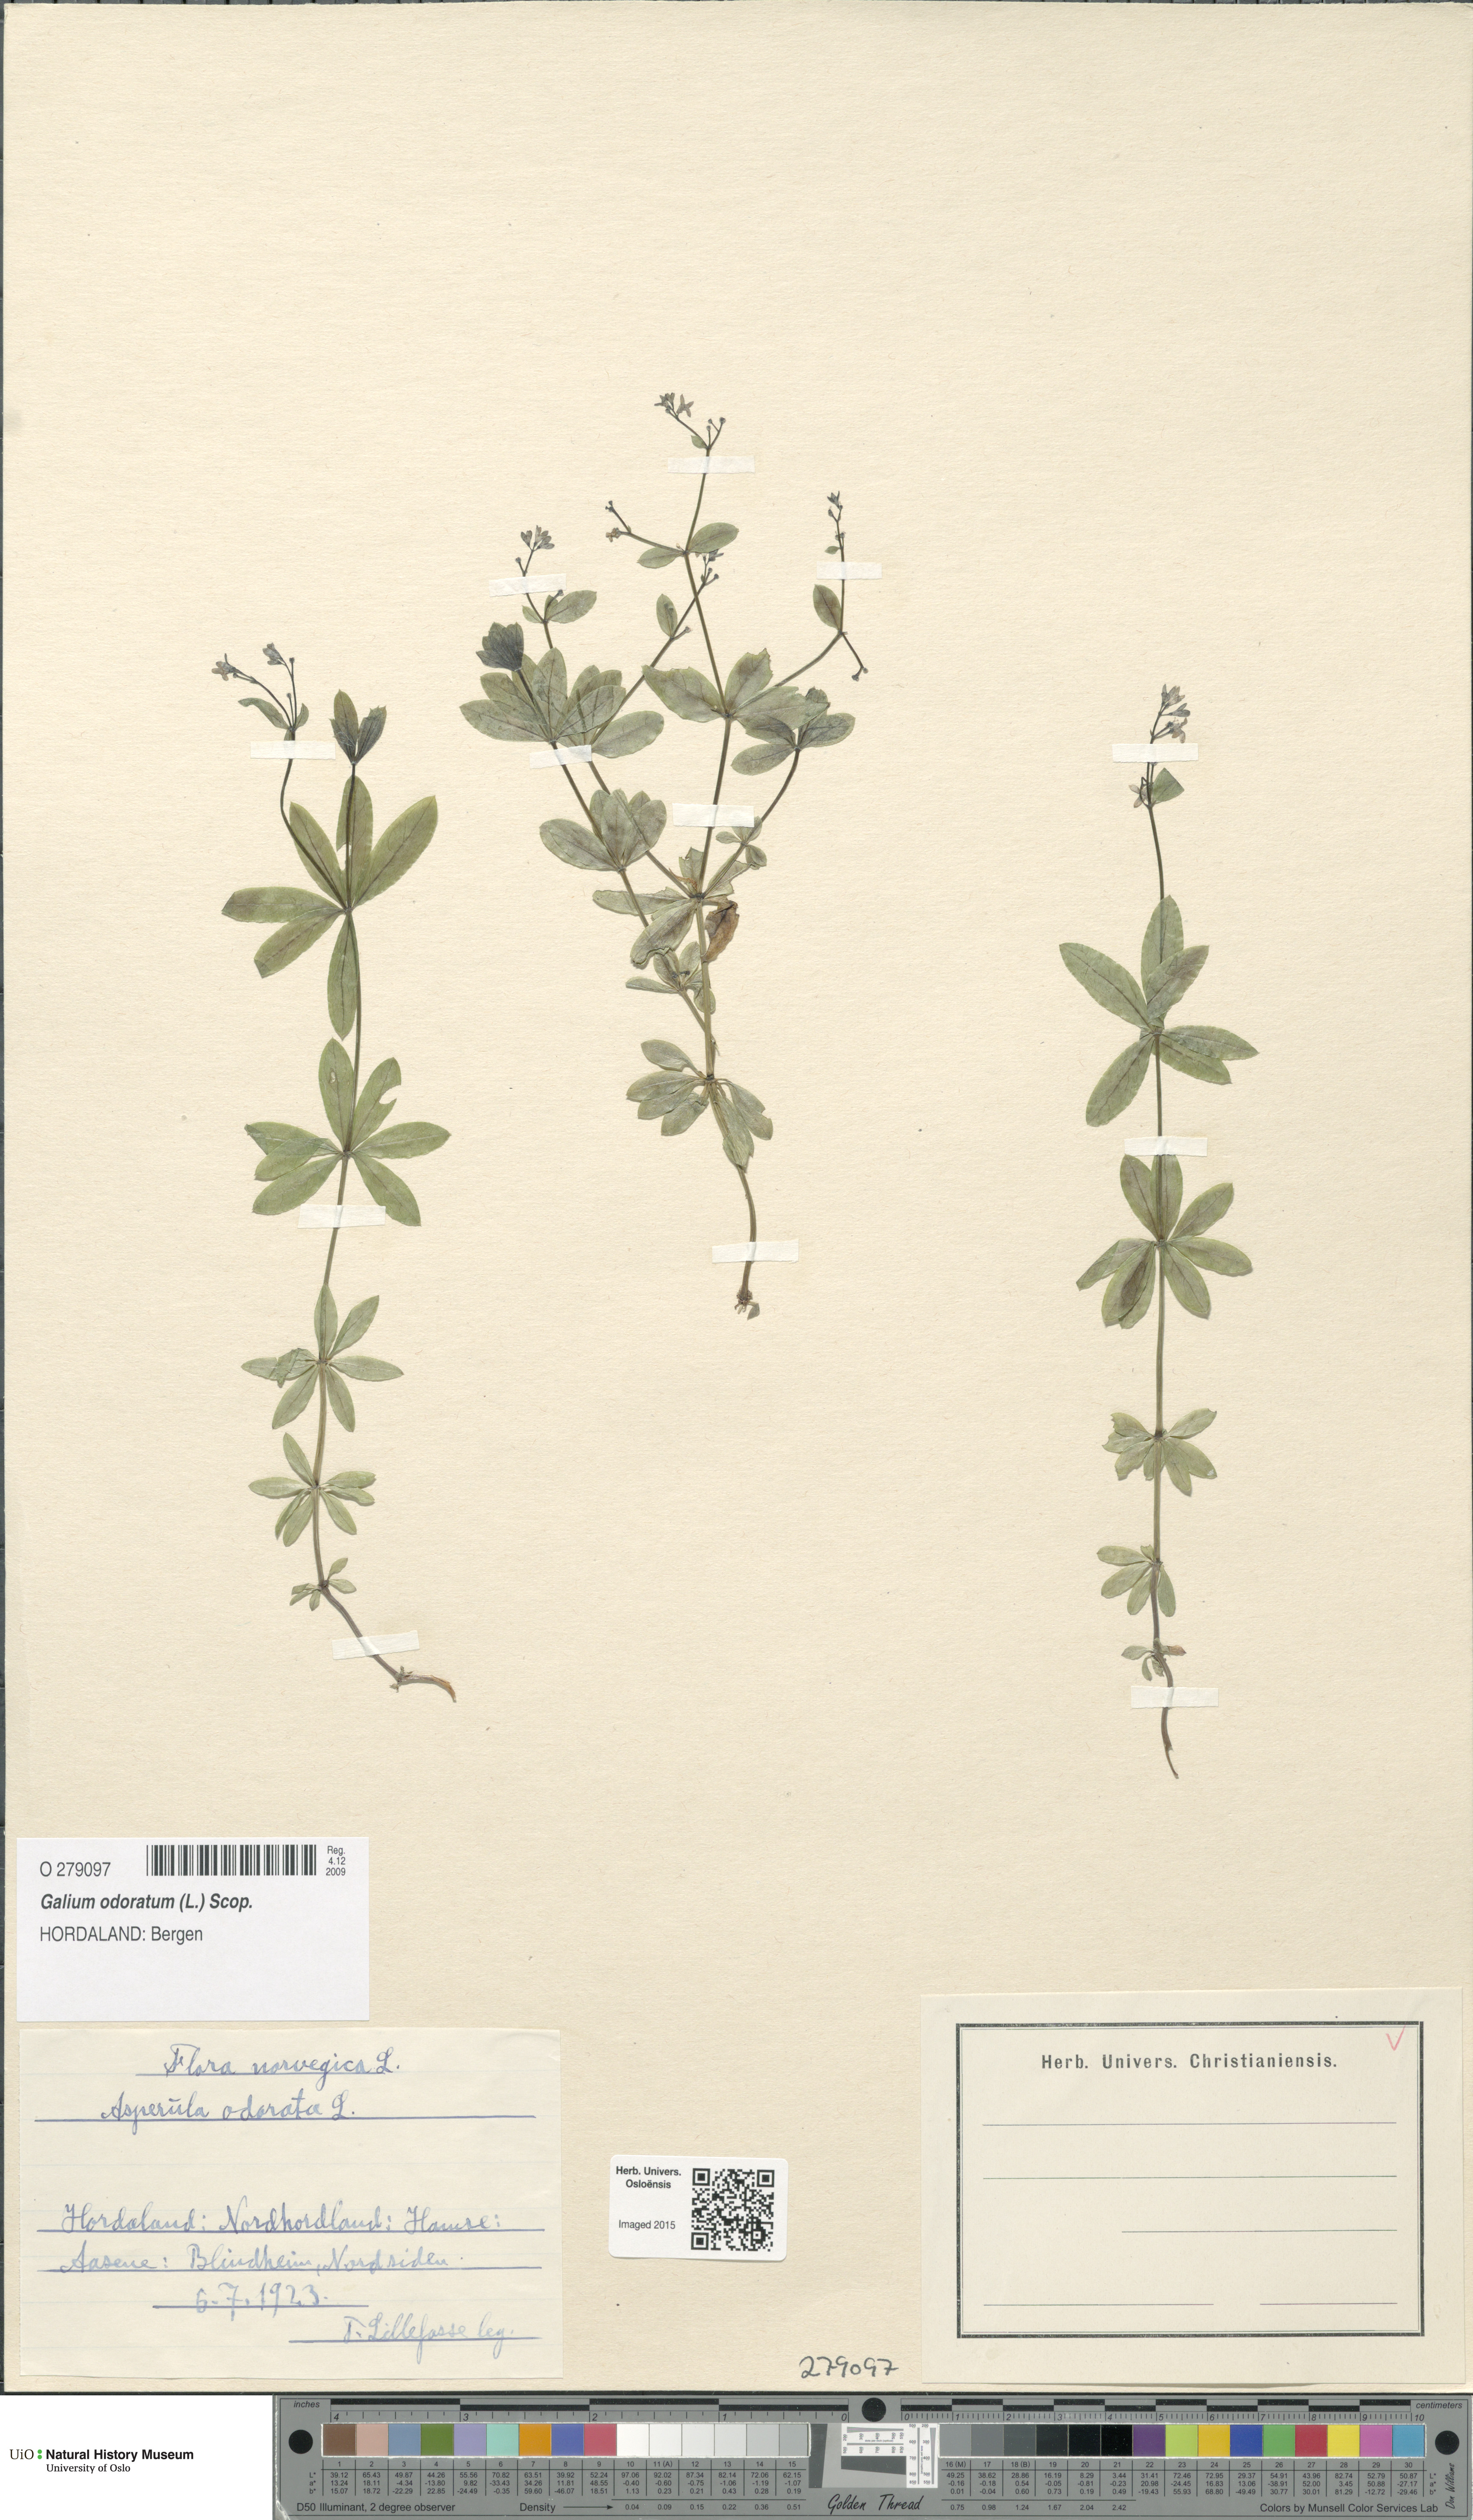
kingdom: Plantae
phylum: Tracheophyta
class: Magnoliopsida
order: Gentianales
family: Rubiaceae
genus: Galium
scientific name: Galium odoratum
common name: Sweet woodruff
